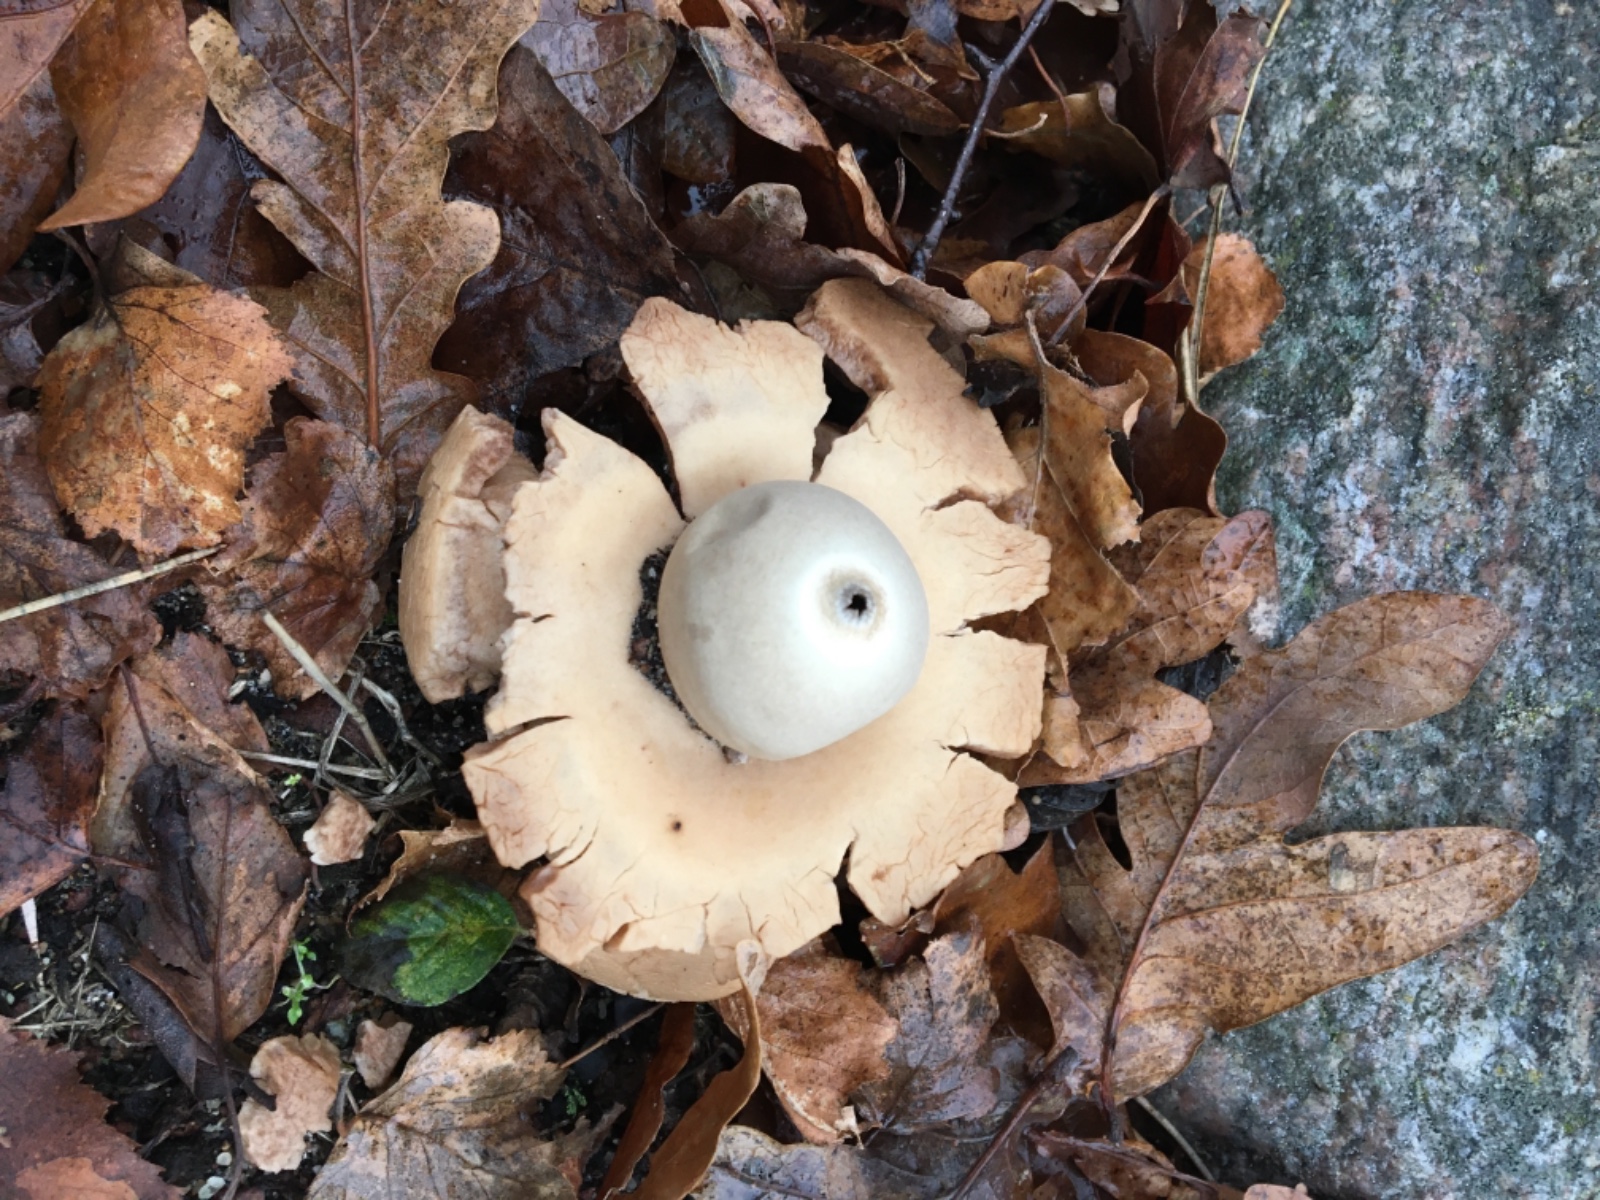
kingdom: Fungi
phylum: Basidiomycota
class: Agaricomycetes
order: Geastrales
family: Geastraceae
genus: Geastrum
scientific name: Geastrum michelianum
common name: kødet stjernebold
